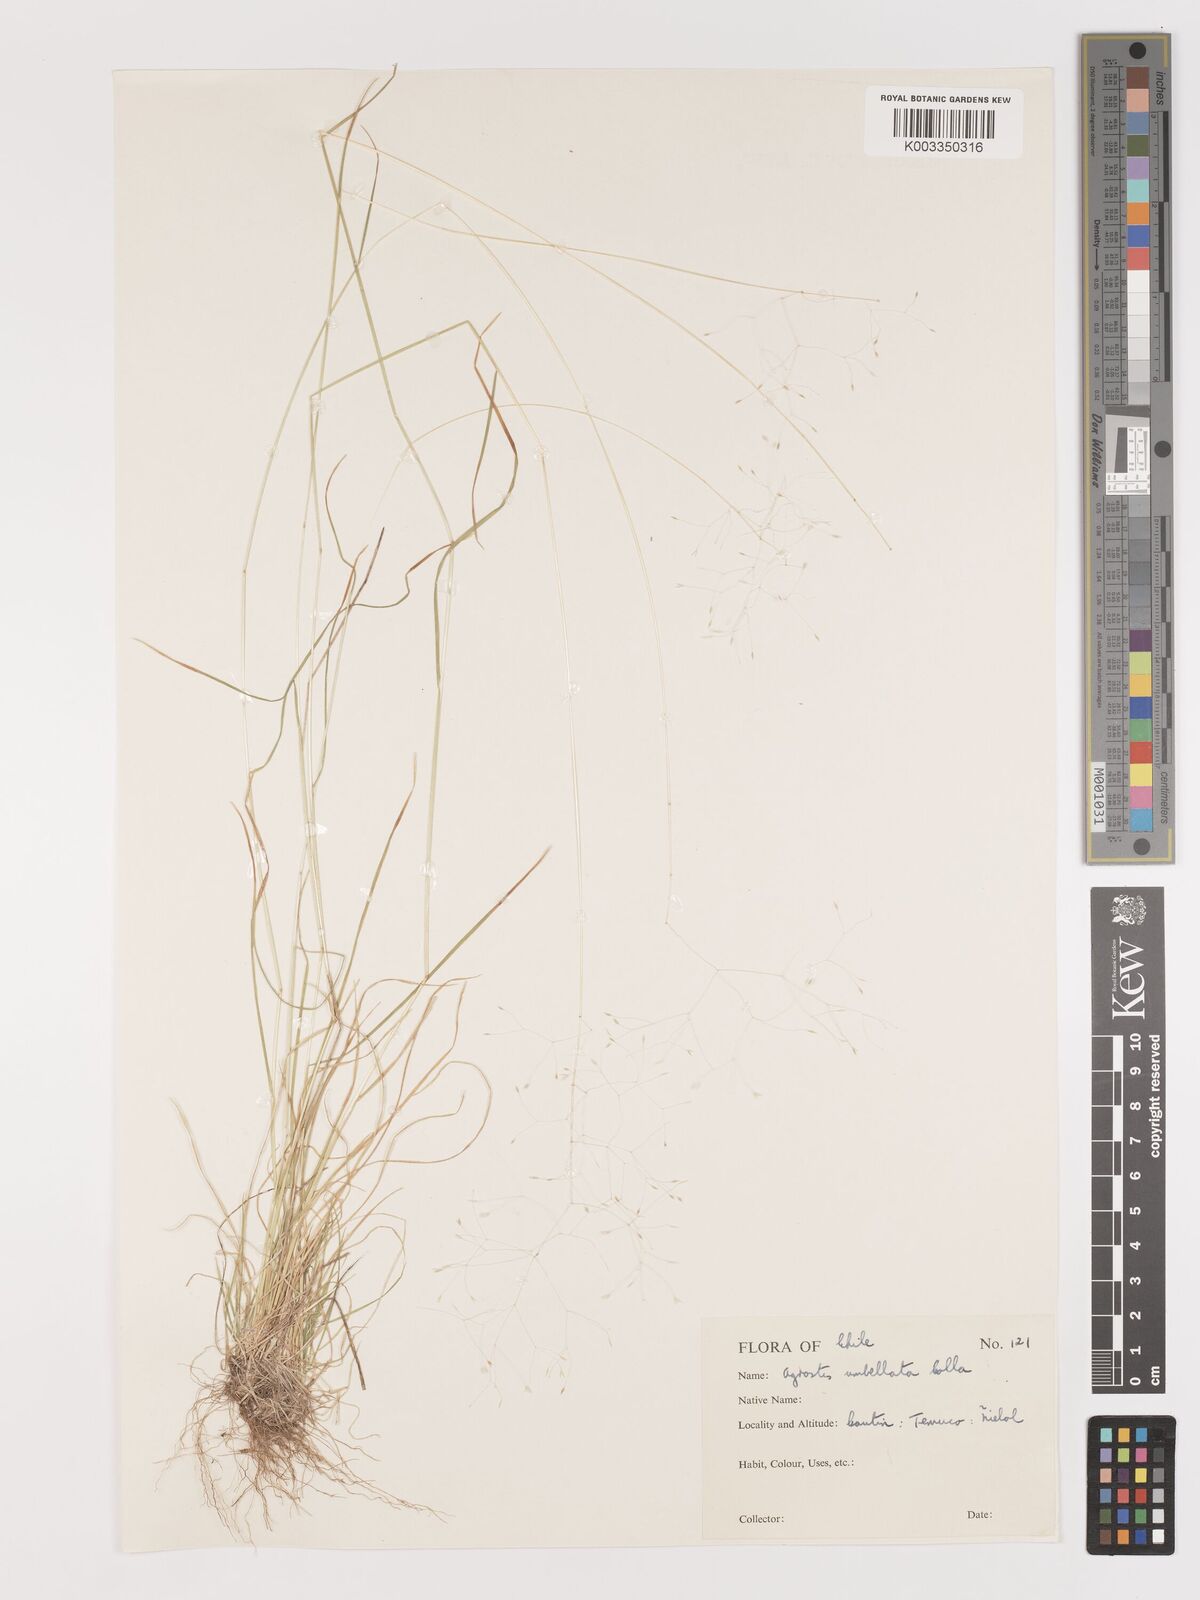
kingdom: Plantae
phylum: Tracheophyta
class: Liliopsida
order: Poales
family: Poaceae
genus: Agrostis
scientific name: Agrostis umbellata
